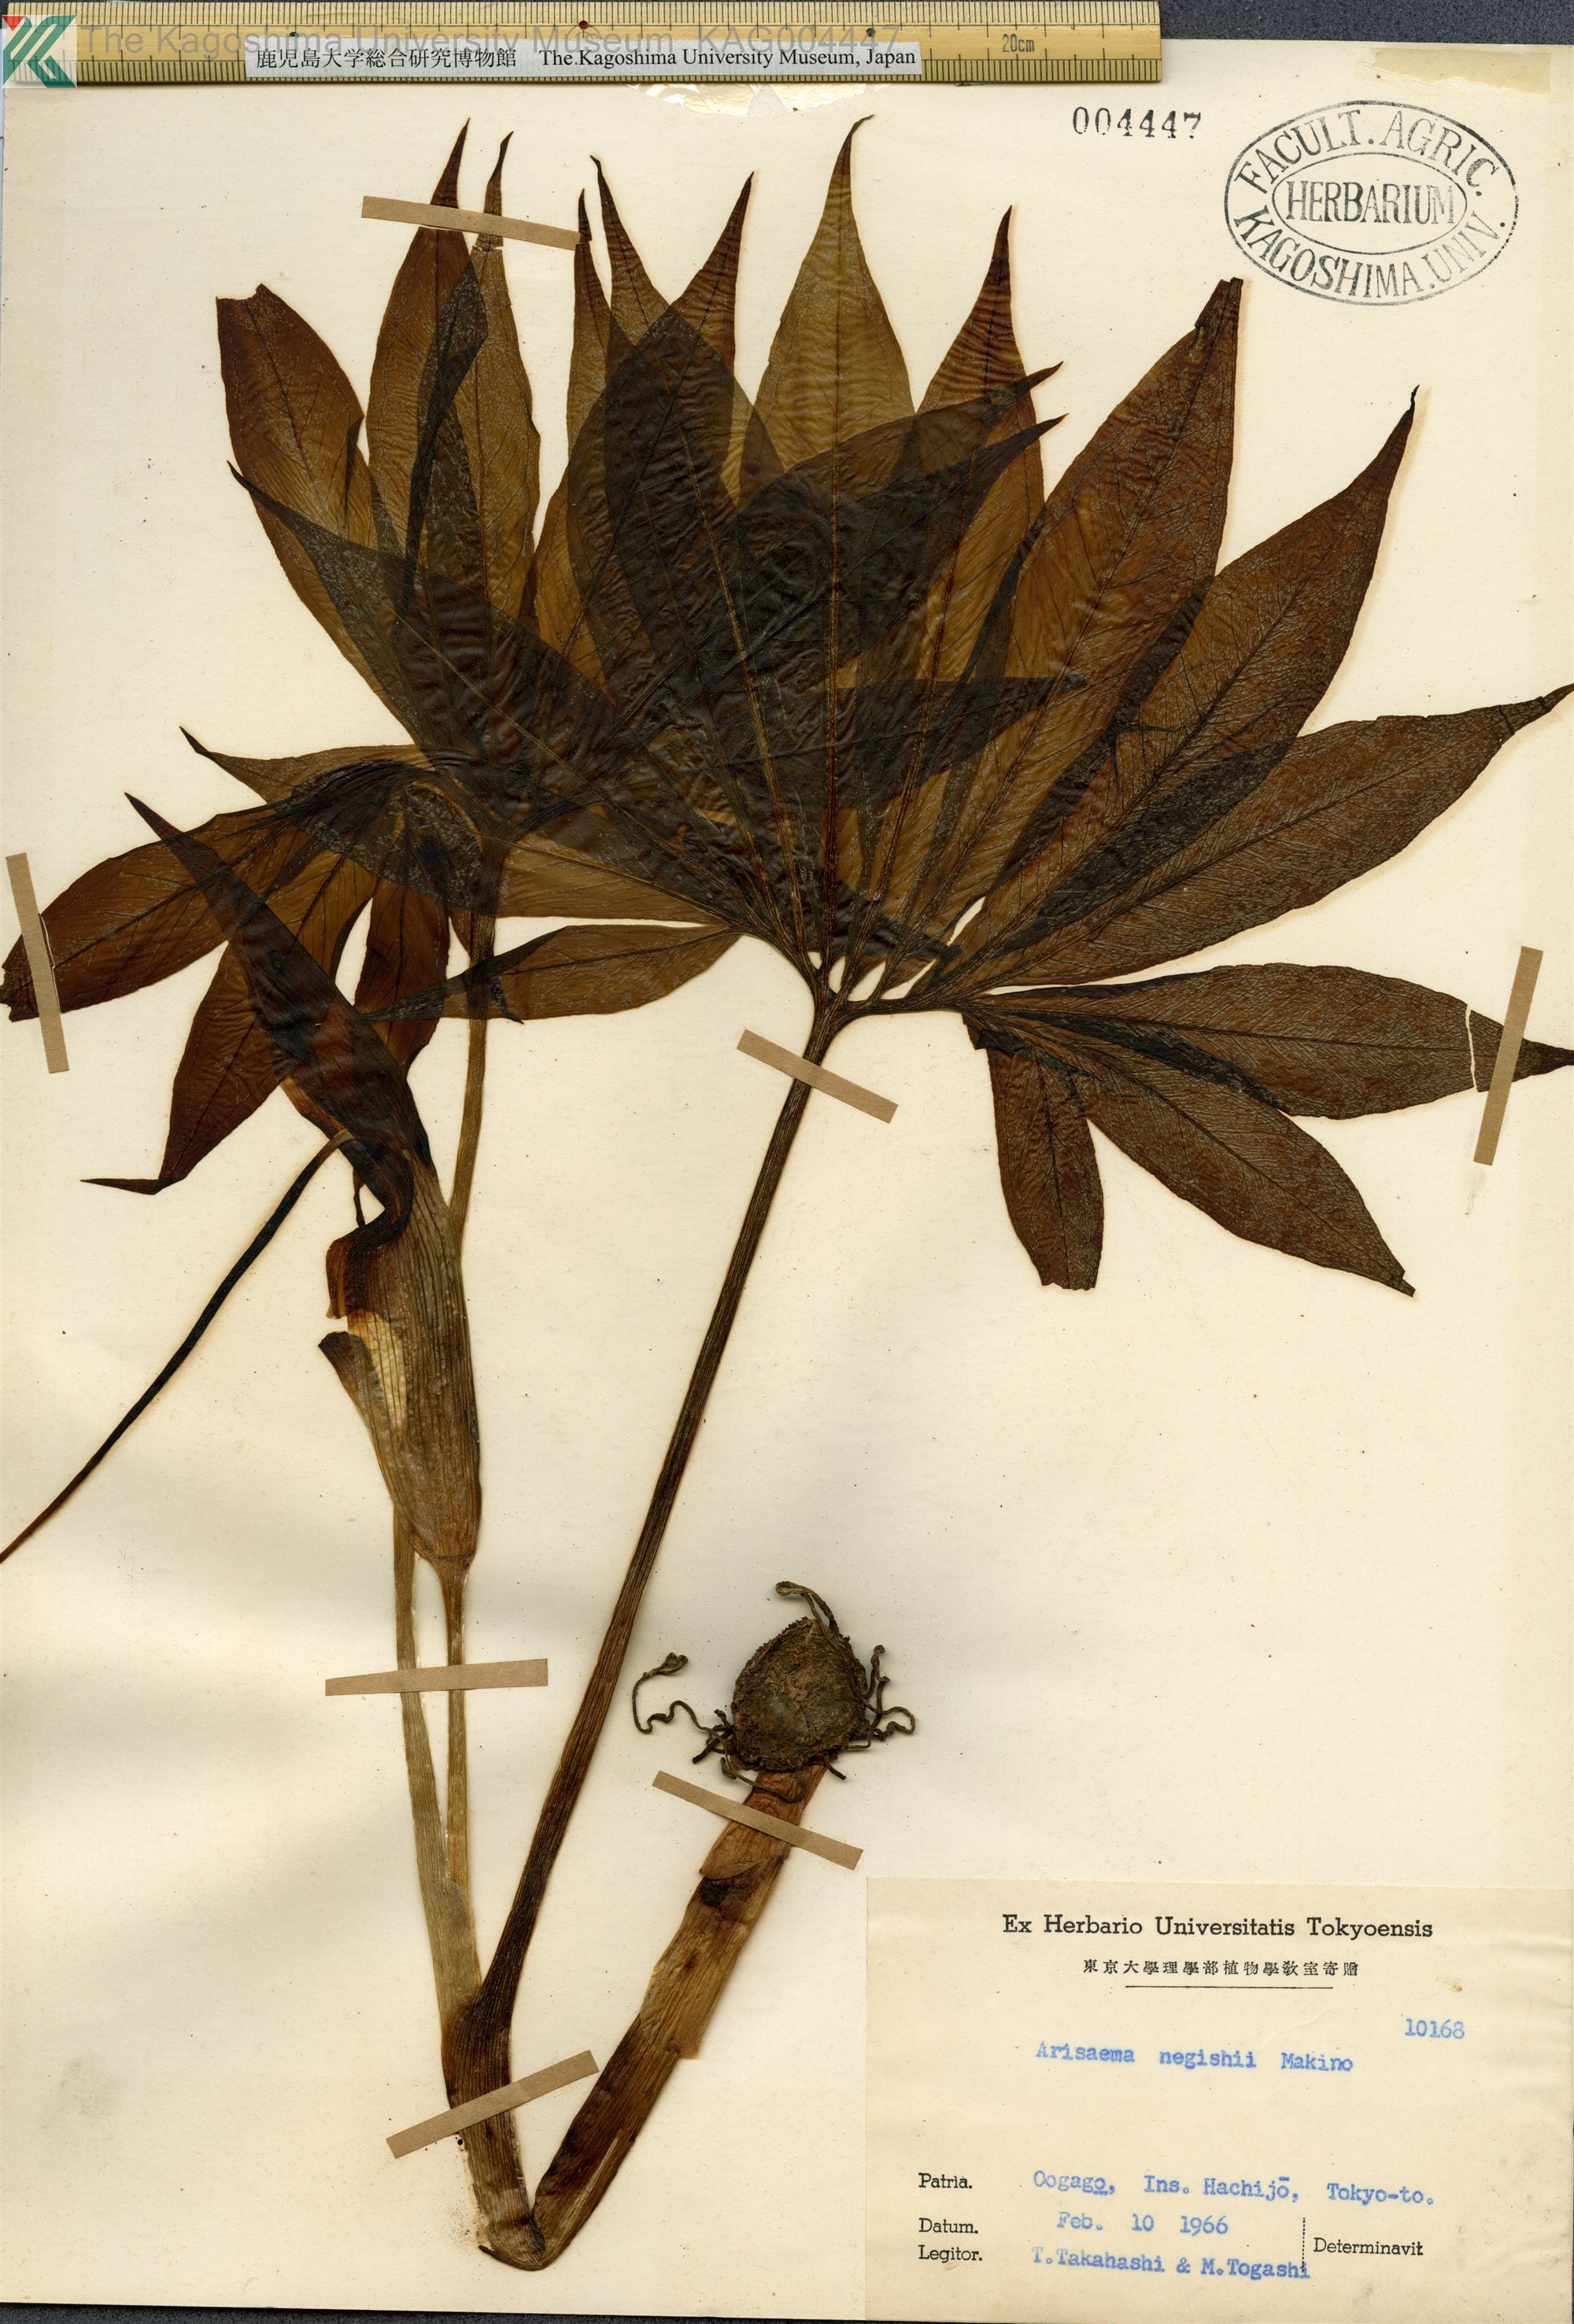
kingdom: Plantae
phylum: Tracheophyta
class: Liliopsida
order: Alismatales
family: Araceae
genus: Arisaema
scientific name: Arisaema negishii
